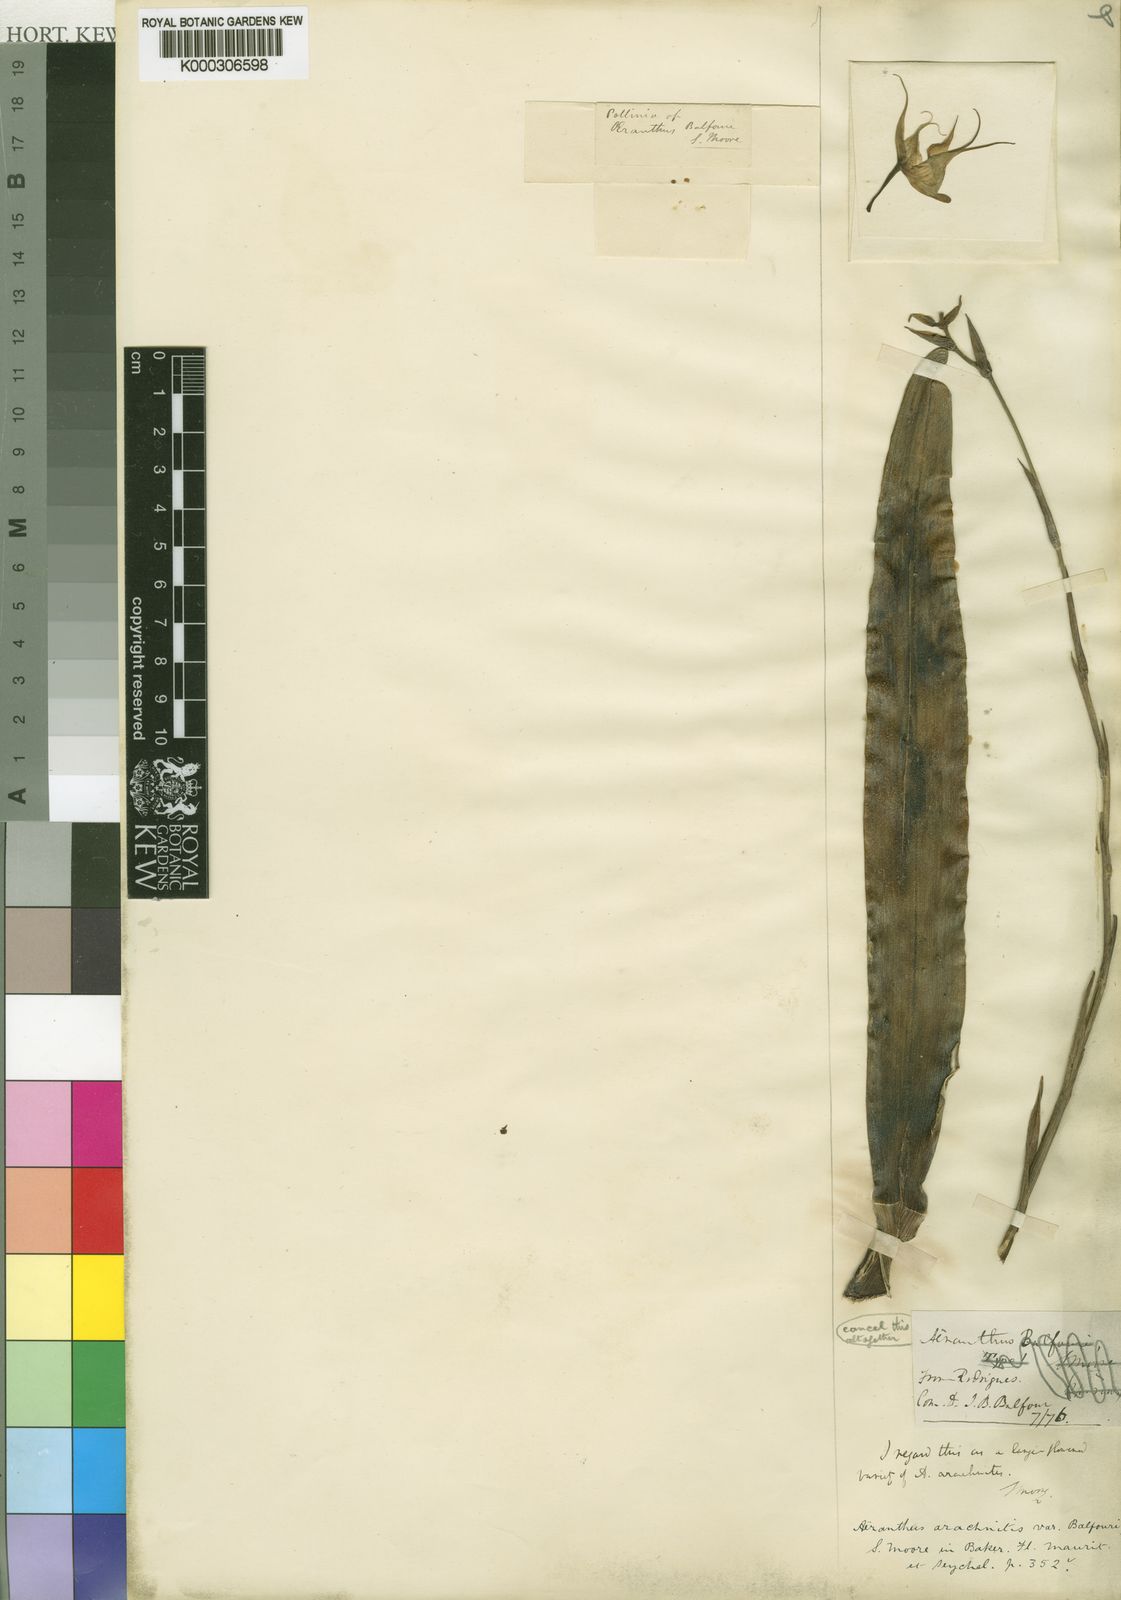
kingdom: Plantae
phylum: Tracheophyta
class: Liliopsida
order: Asparagales
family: Orchidaceae
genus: Aeranthes
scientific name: Aeranthes arachnites
